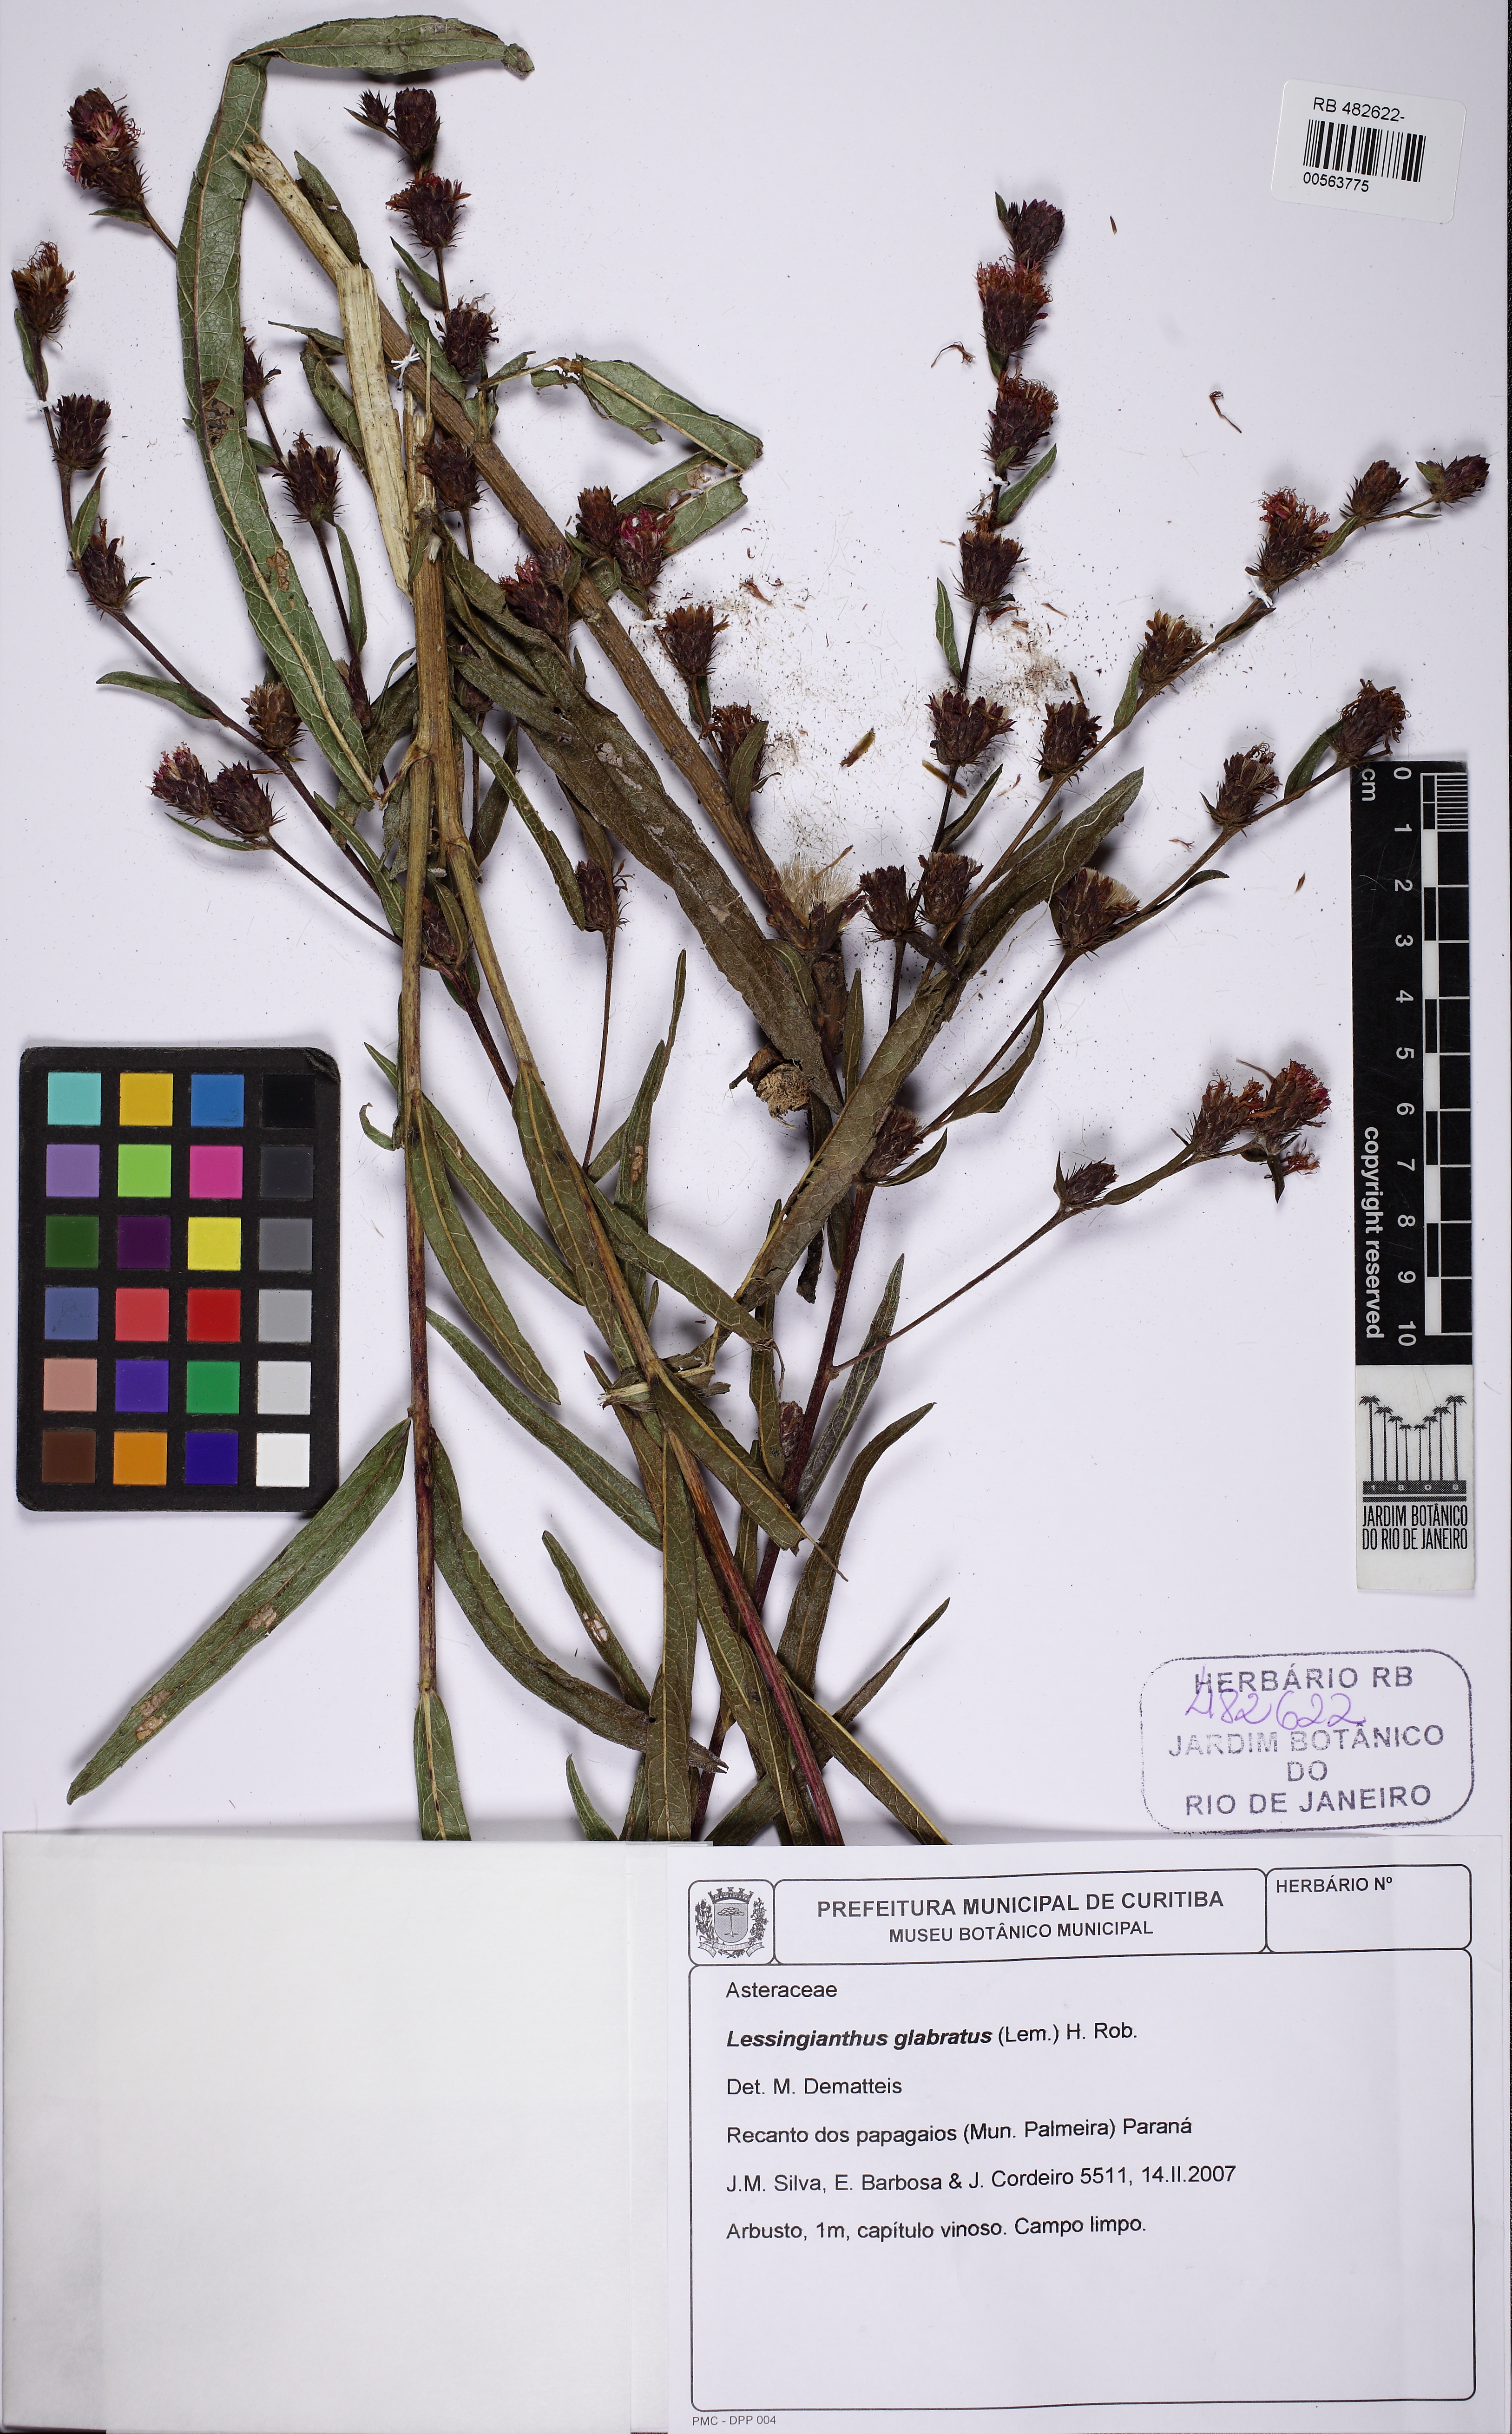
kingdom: Plantae
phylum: Tracheophyta
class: Magnoliopsida
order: Asterales
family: Asteraceae
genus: Lessingianthus
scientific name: Lessingianthus glabratus
